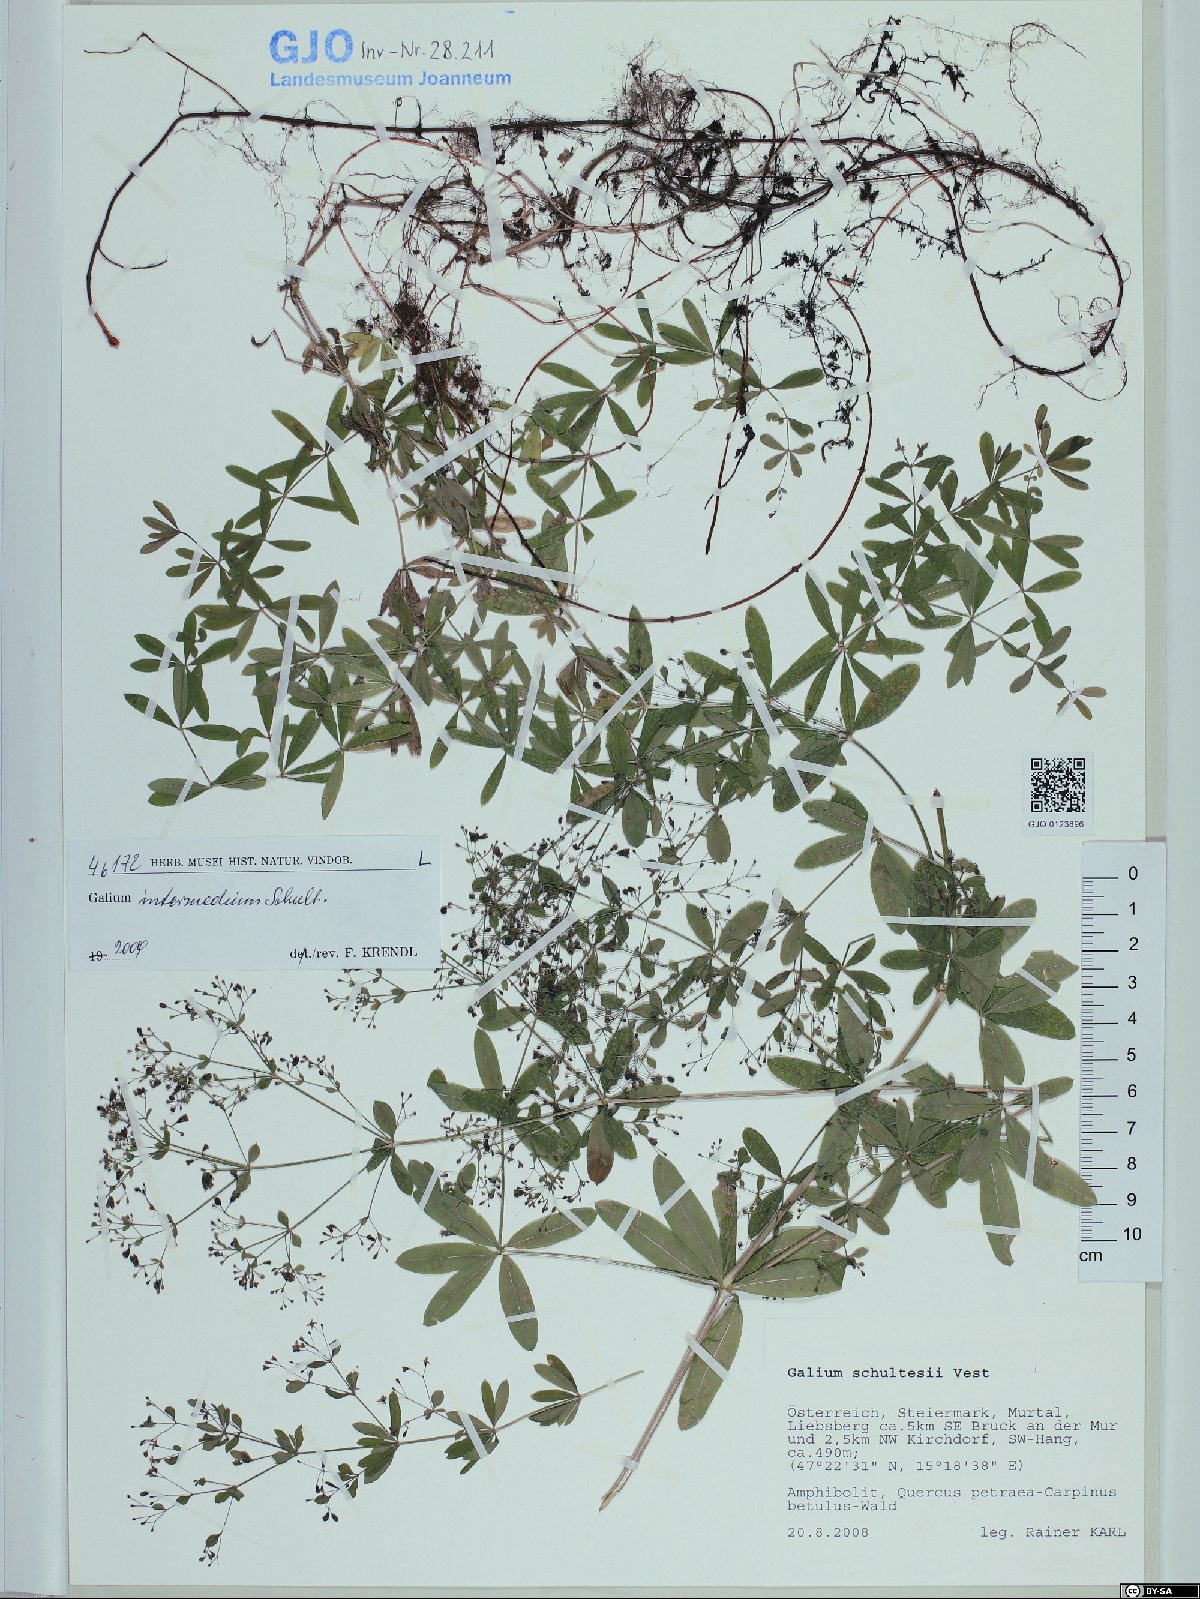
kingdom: Plantae
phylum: Tracheophyta
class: Magnoliopsida
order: Gentianales
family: Rubiaceae
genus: Galium
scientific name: Galium intermedium
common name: Bedstraw
